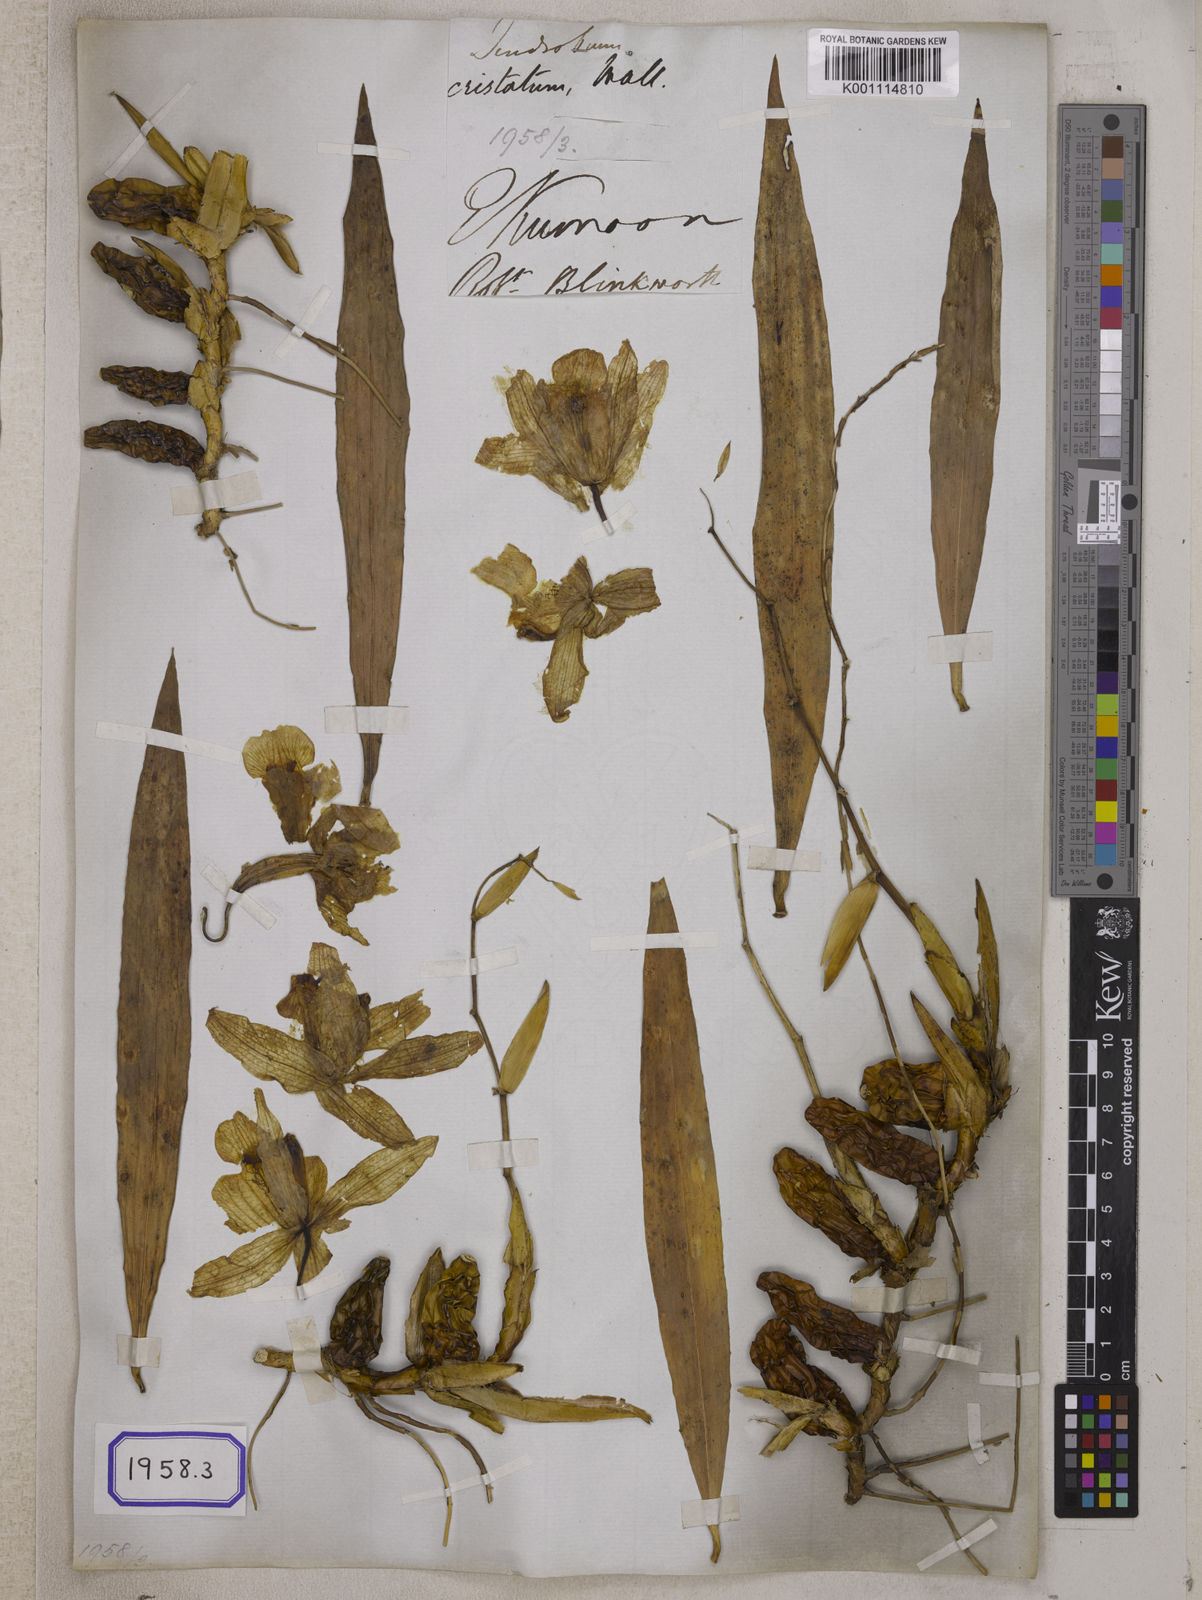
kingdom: Plantae
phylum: Tracheophyta
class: Liliopsida
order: Asparagales
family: Orchidaceae
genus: Coelogyne
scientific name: Coelogyne cristata
